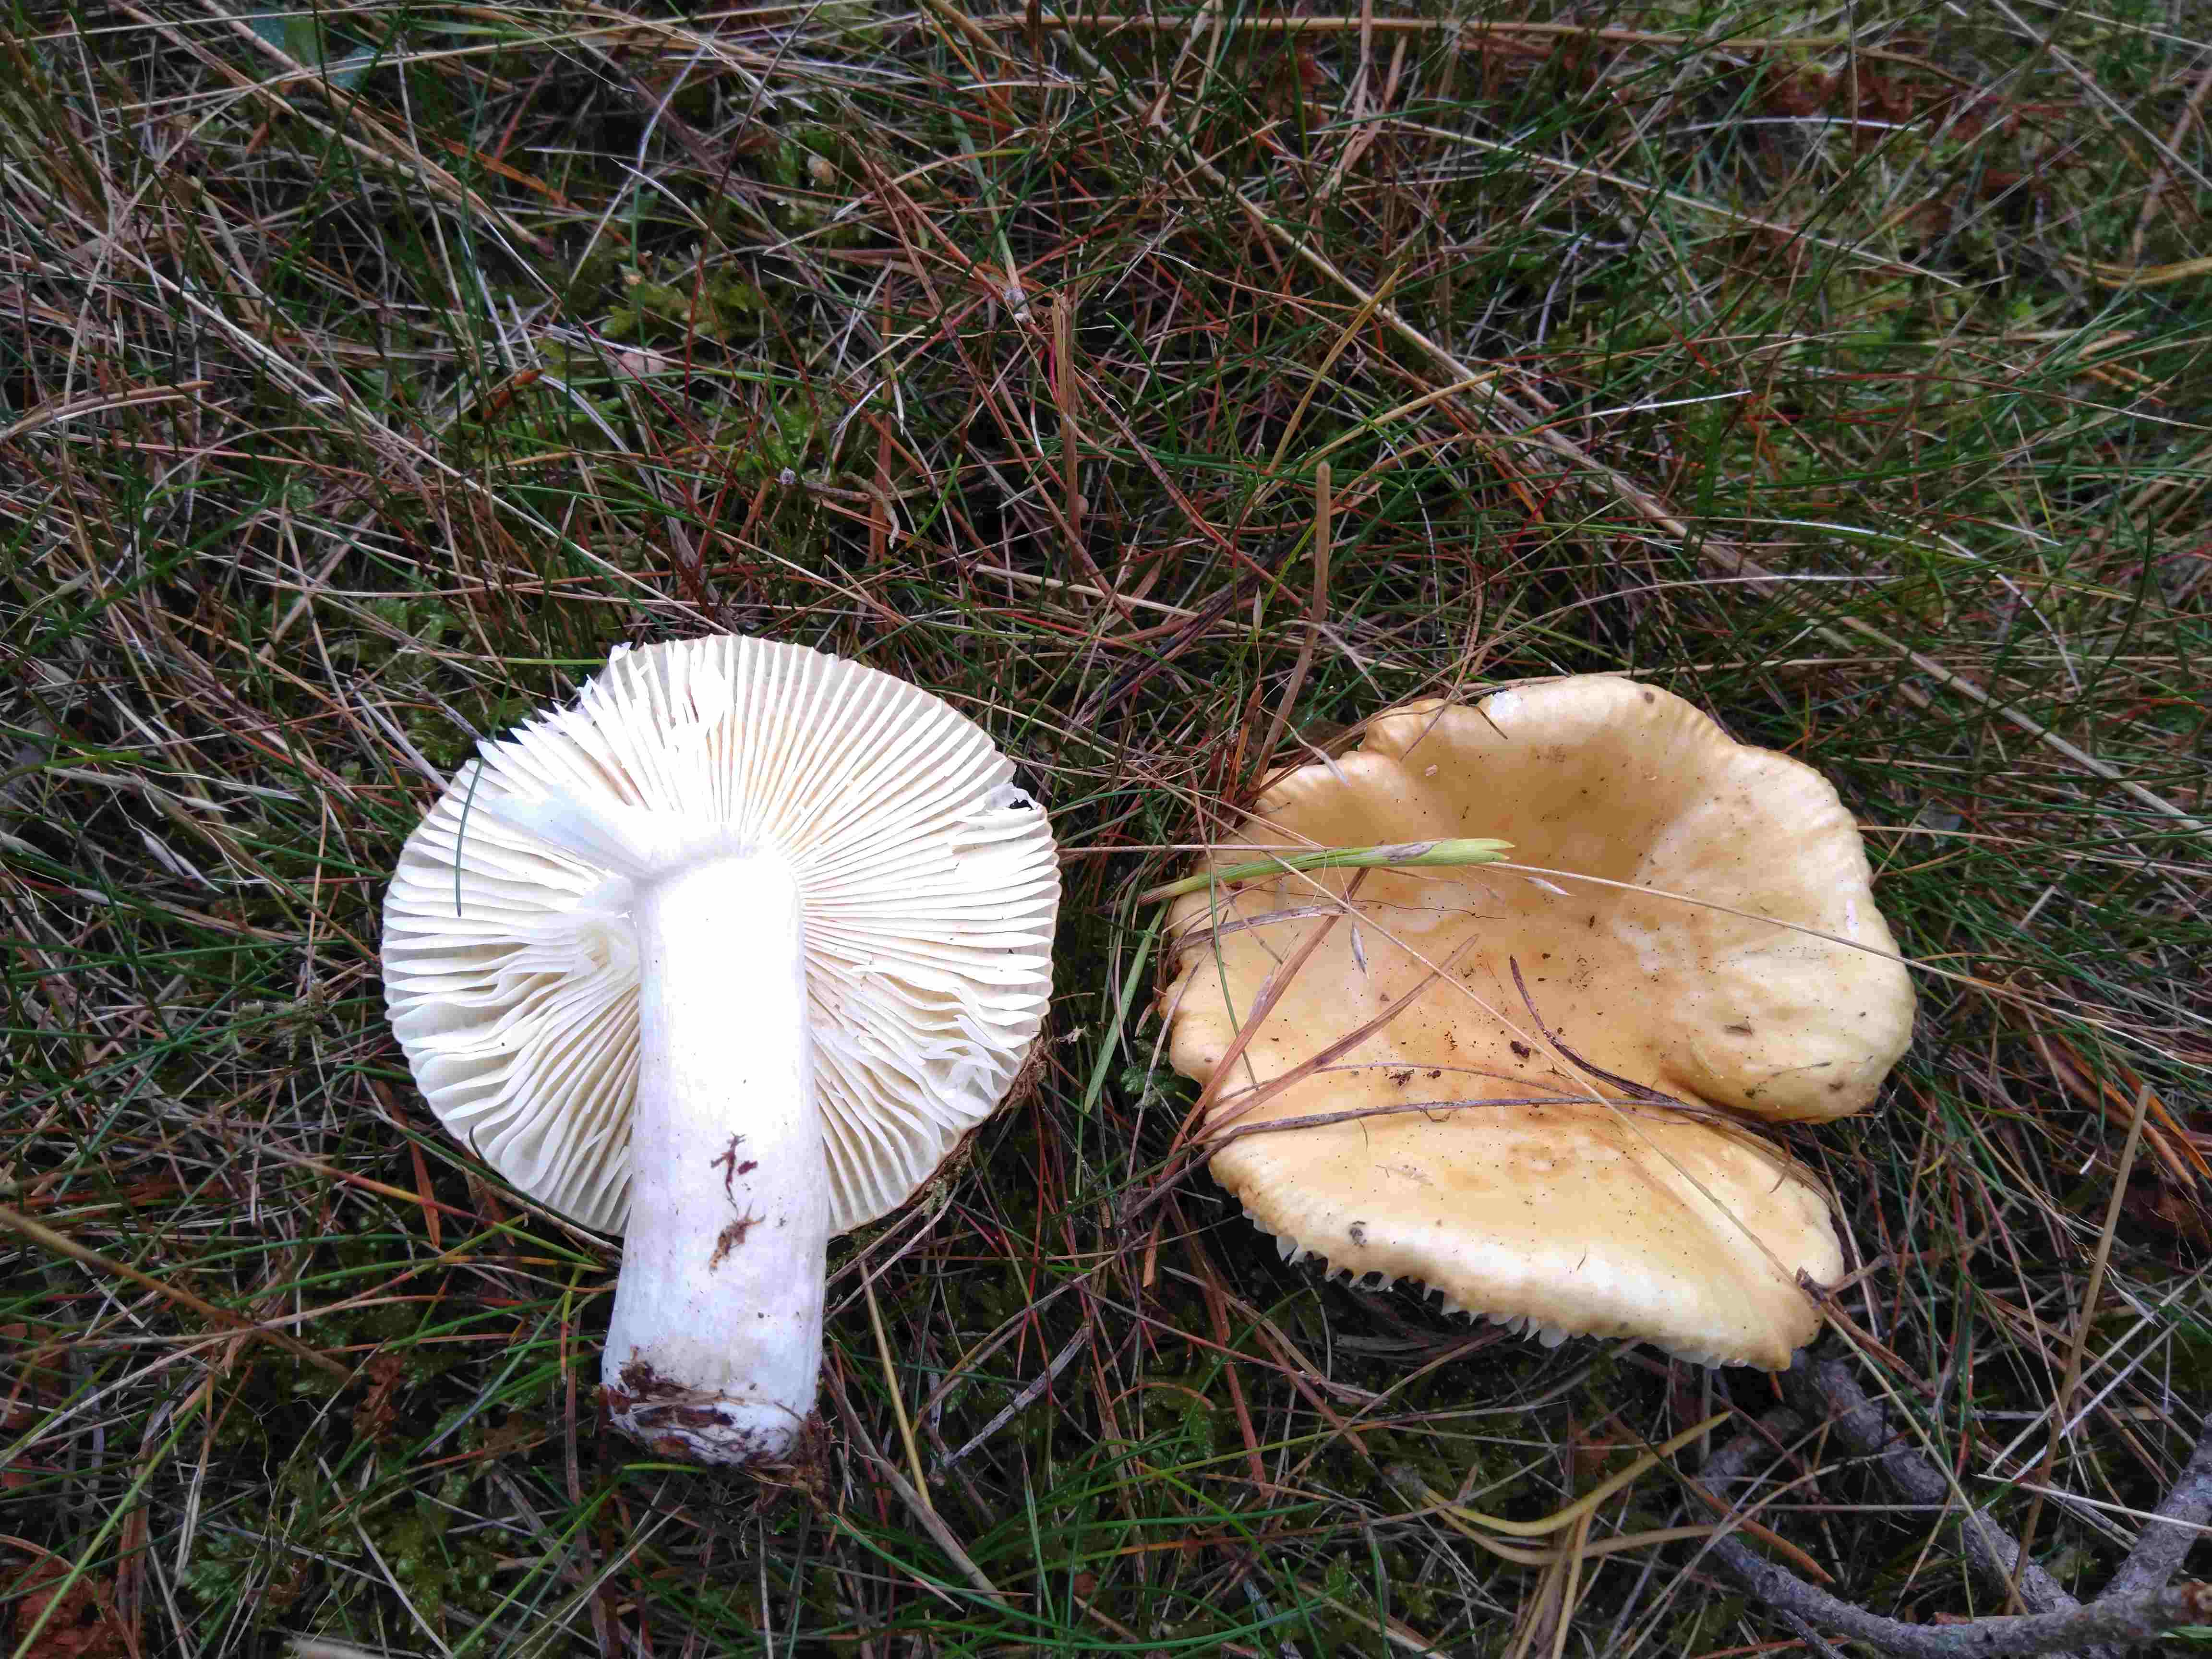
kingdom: Fungi
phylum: Basidiomycota
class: Agaricomycetes
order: Russulales
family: Russulaceae
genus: Russula
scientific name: Russula ochroleuca
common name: okkergul skørhat
